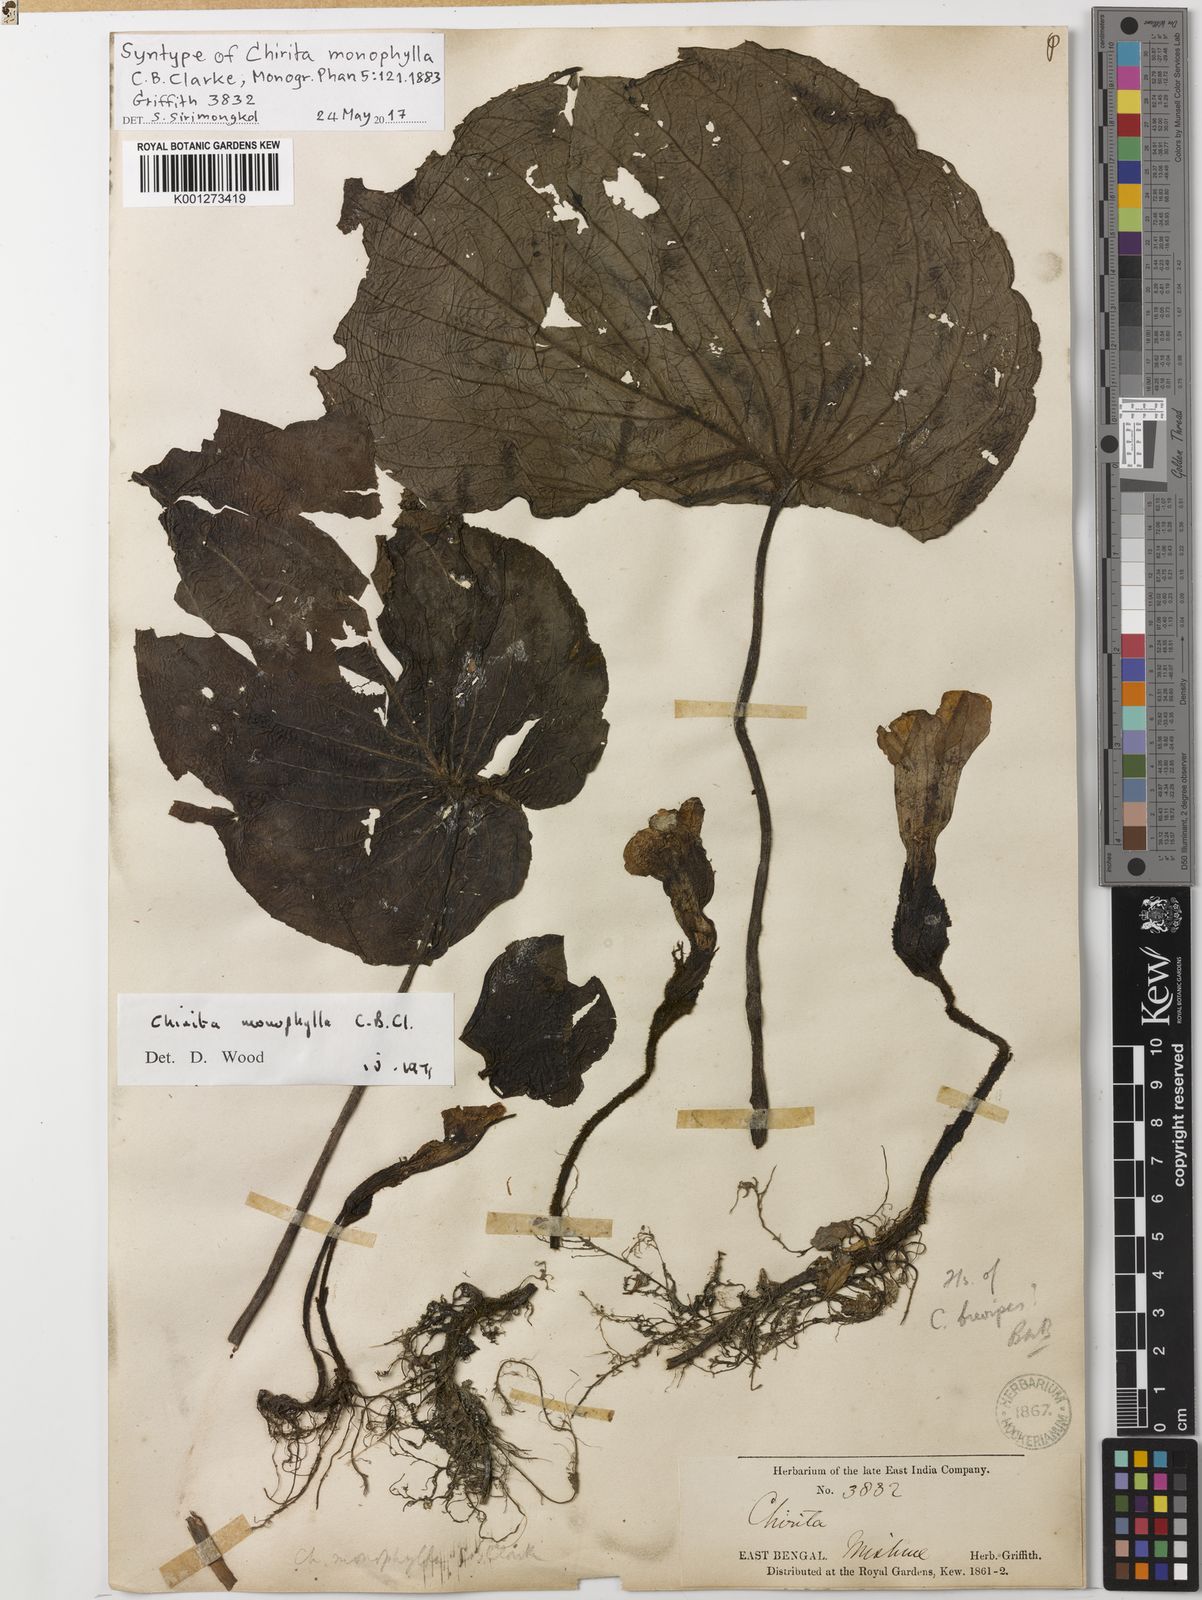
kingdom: Plantae
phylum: Tracheophyta
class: Magnoliopsida
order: Lamiales
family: Gesneriaceae
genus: Henckelia
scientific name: Henckelia monophylla
